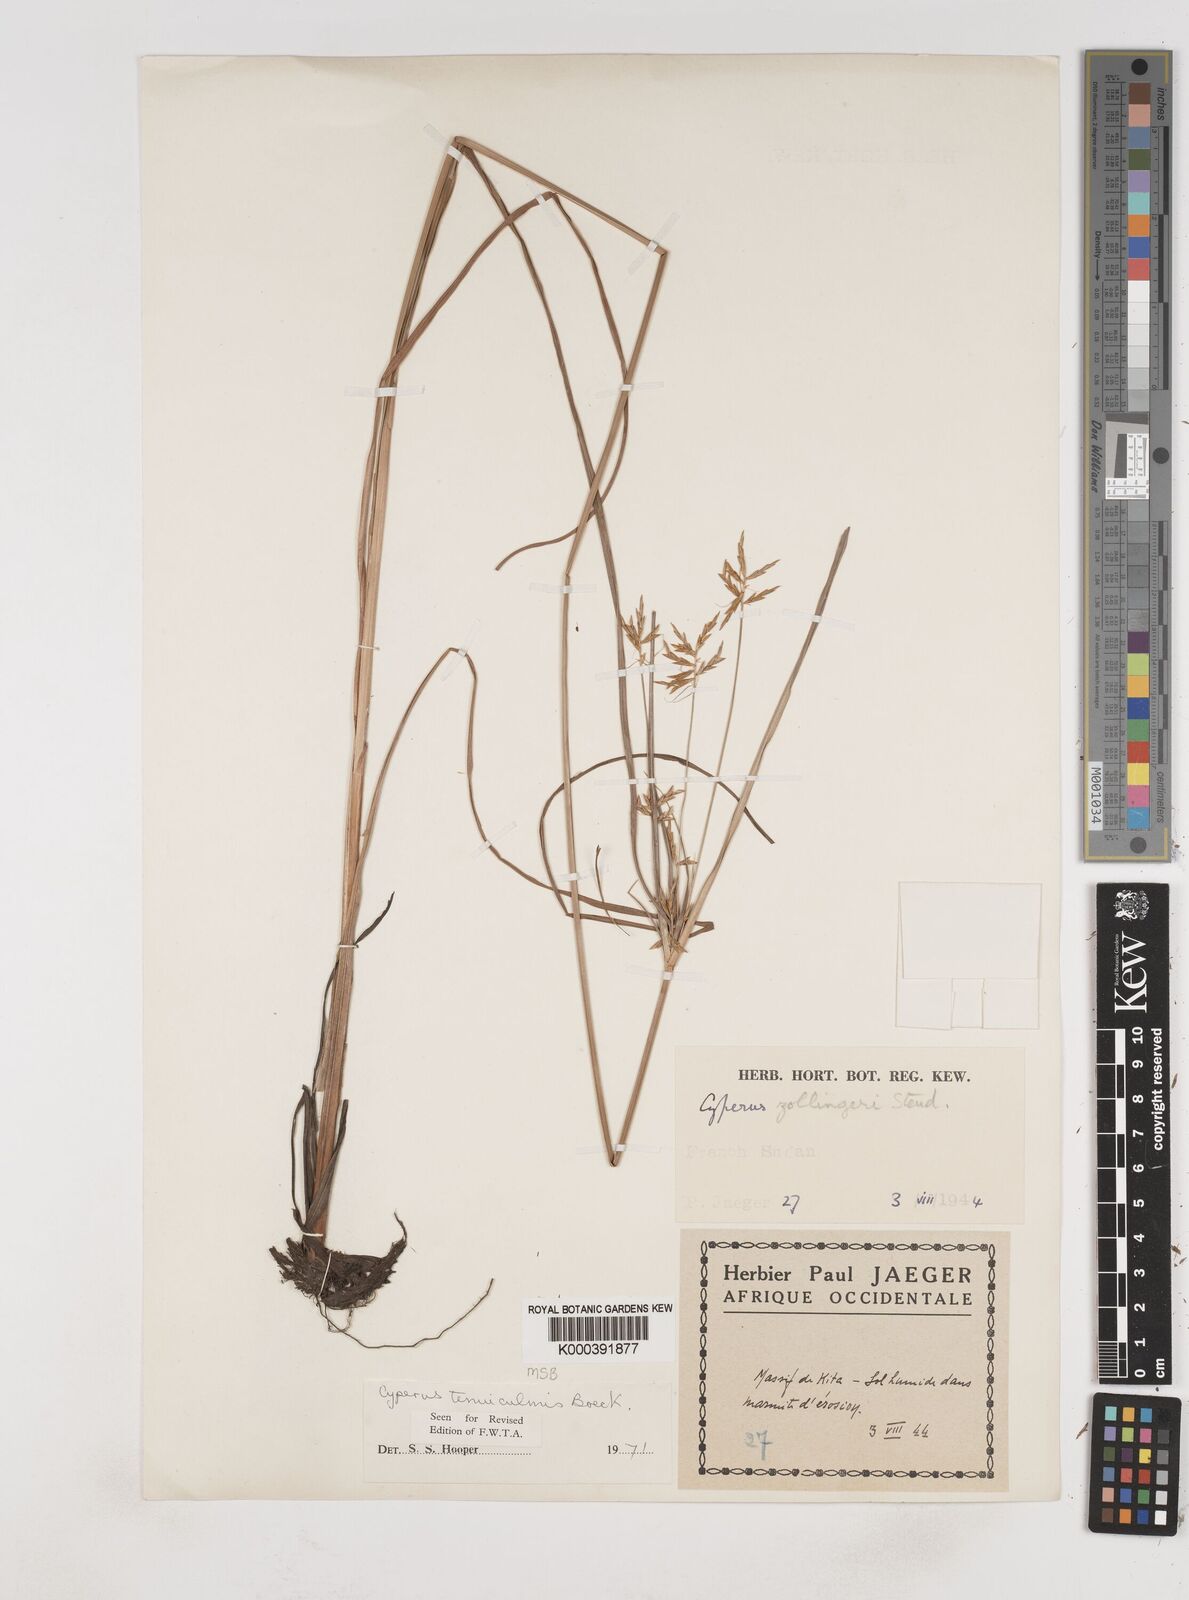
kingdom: Plantae
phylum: Tracheophyta
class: Liliopsida
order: Poales
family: Cyperaceae
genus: Cyperus
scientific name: Cyperus tenuiculmis
